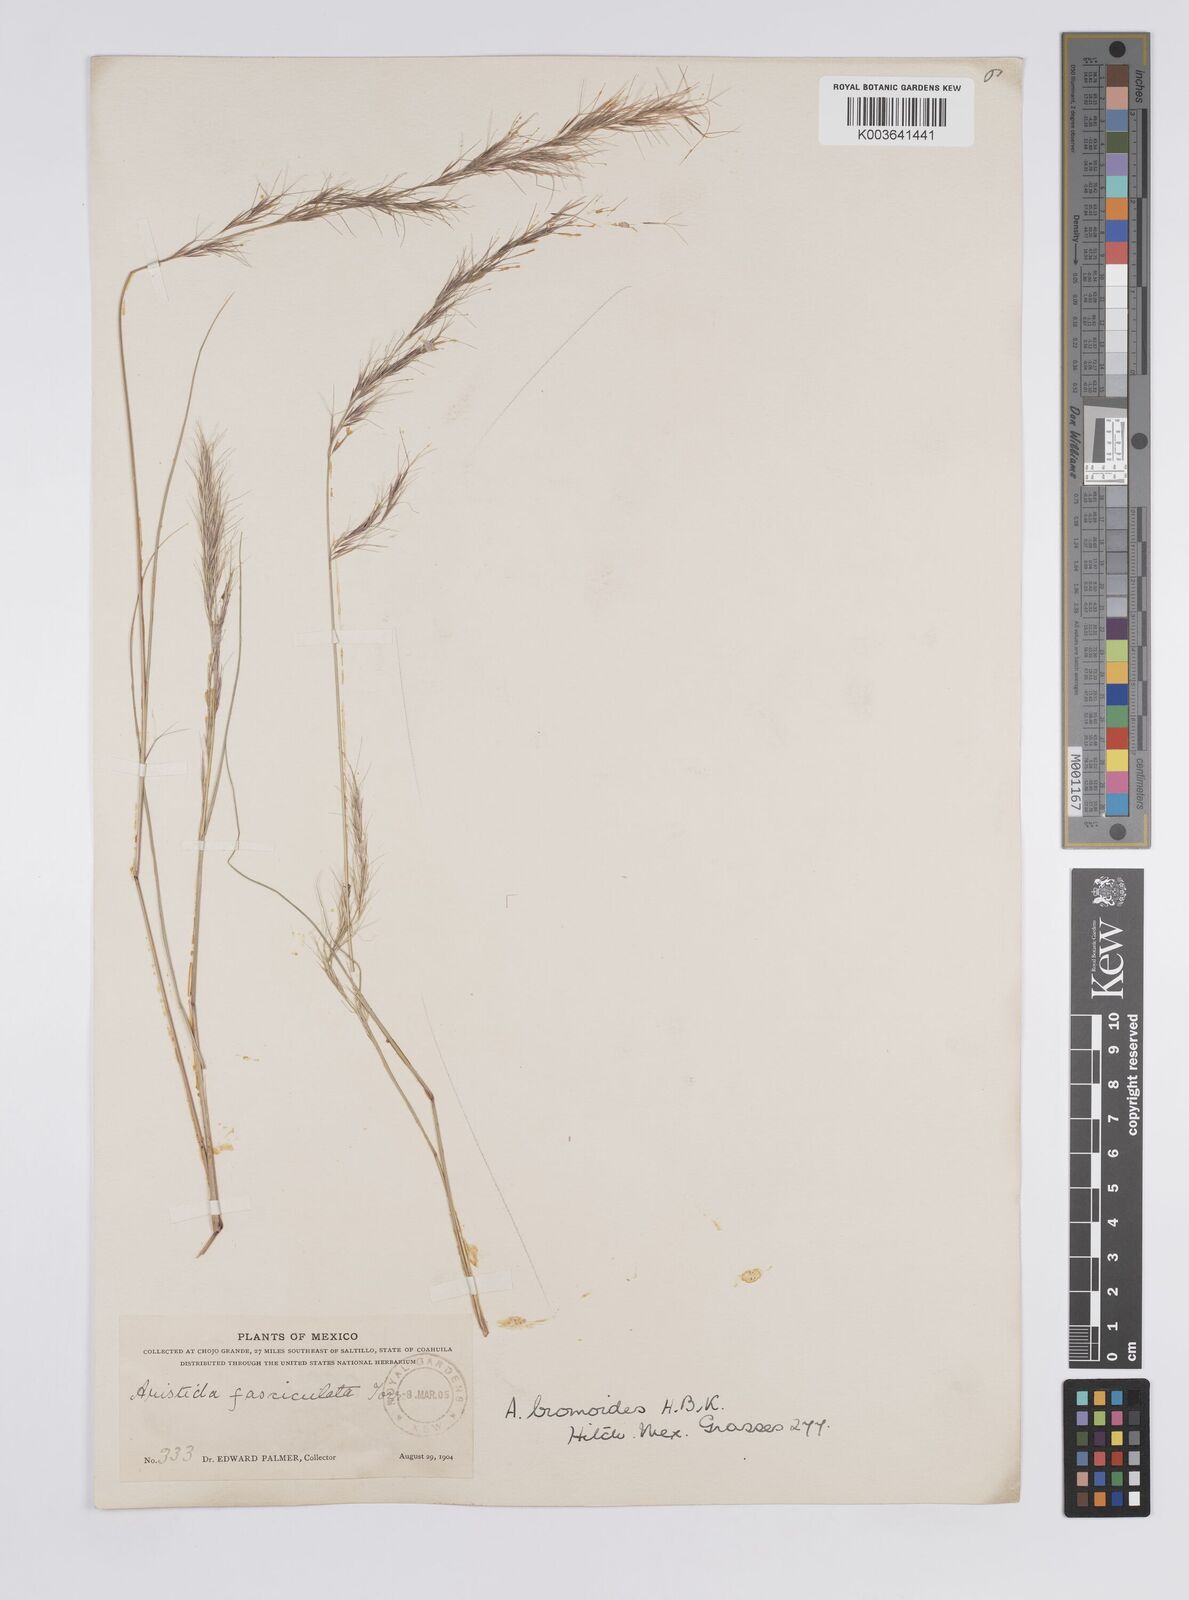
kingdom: Plantae
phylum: Tracheophyta
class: Liliopsida
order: Poales
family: Poaceae
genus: Aristida
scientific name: Aristida adscensionis
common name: Sixweeks threeawn
